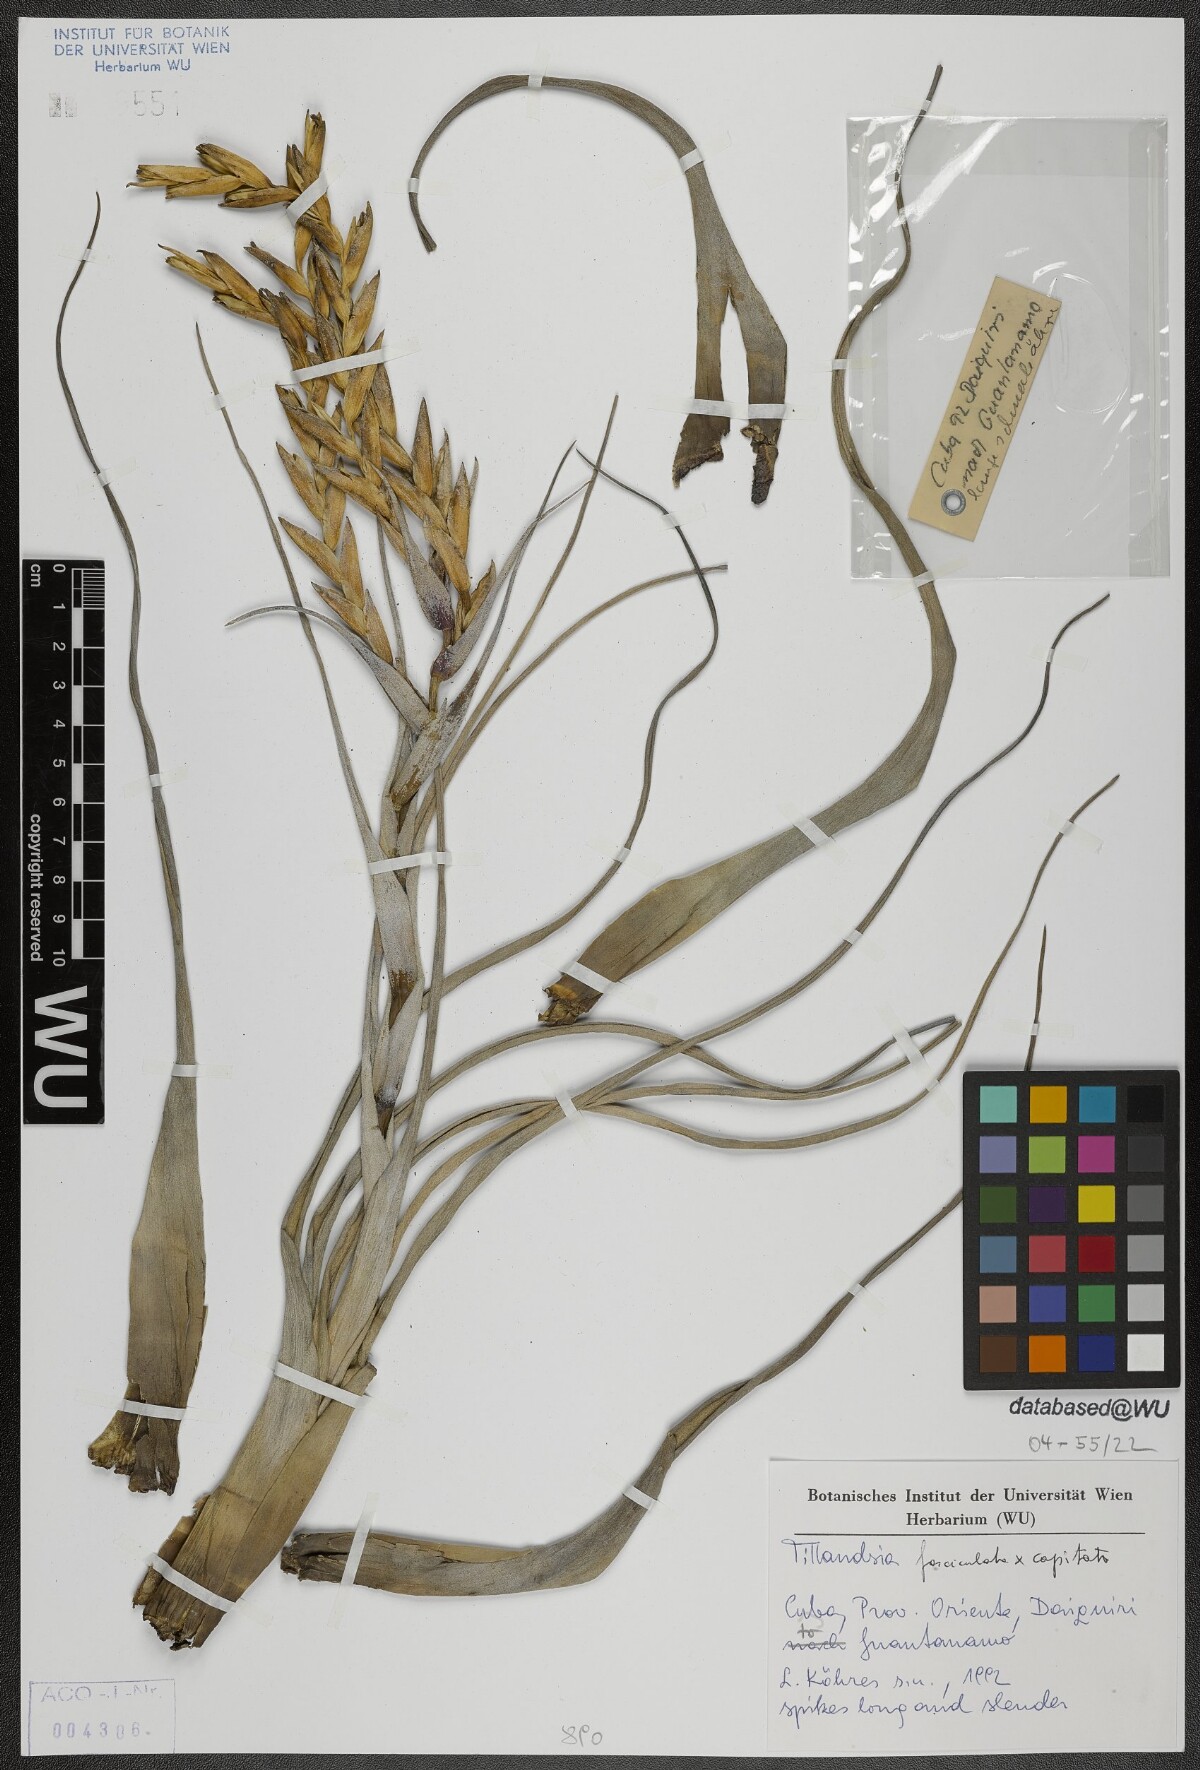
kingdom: Plantae
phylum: Tracheophyta
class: Liliopsida
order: Poales
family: Bromeliaceae
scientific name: Bromeliaceae
